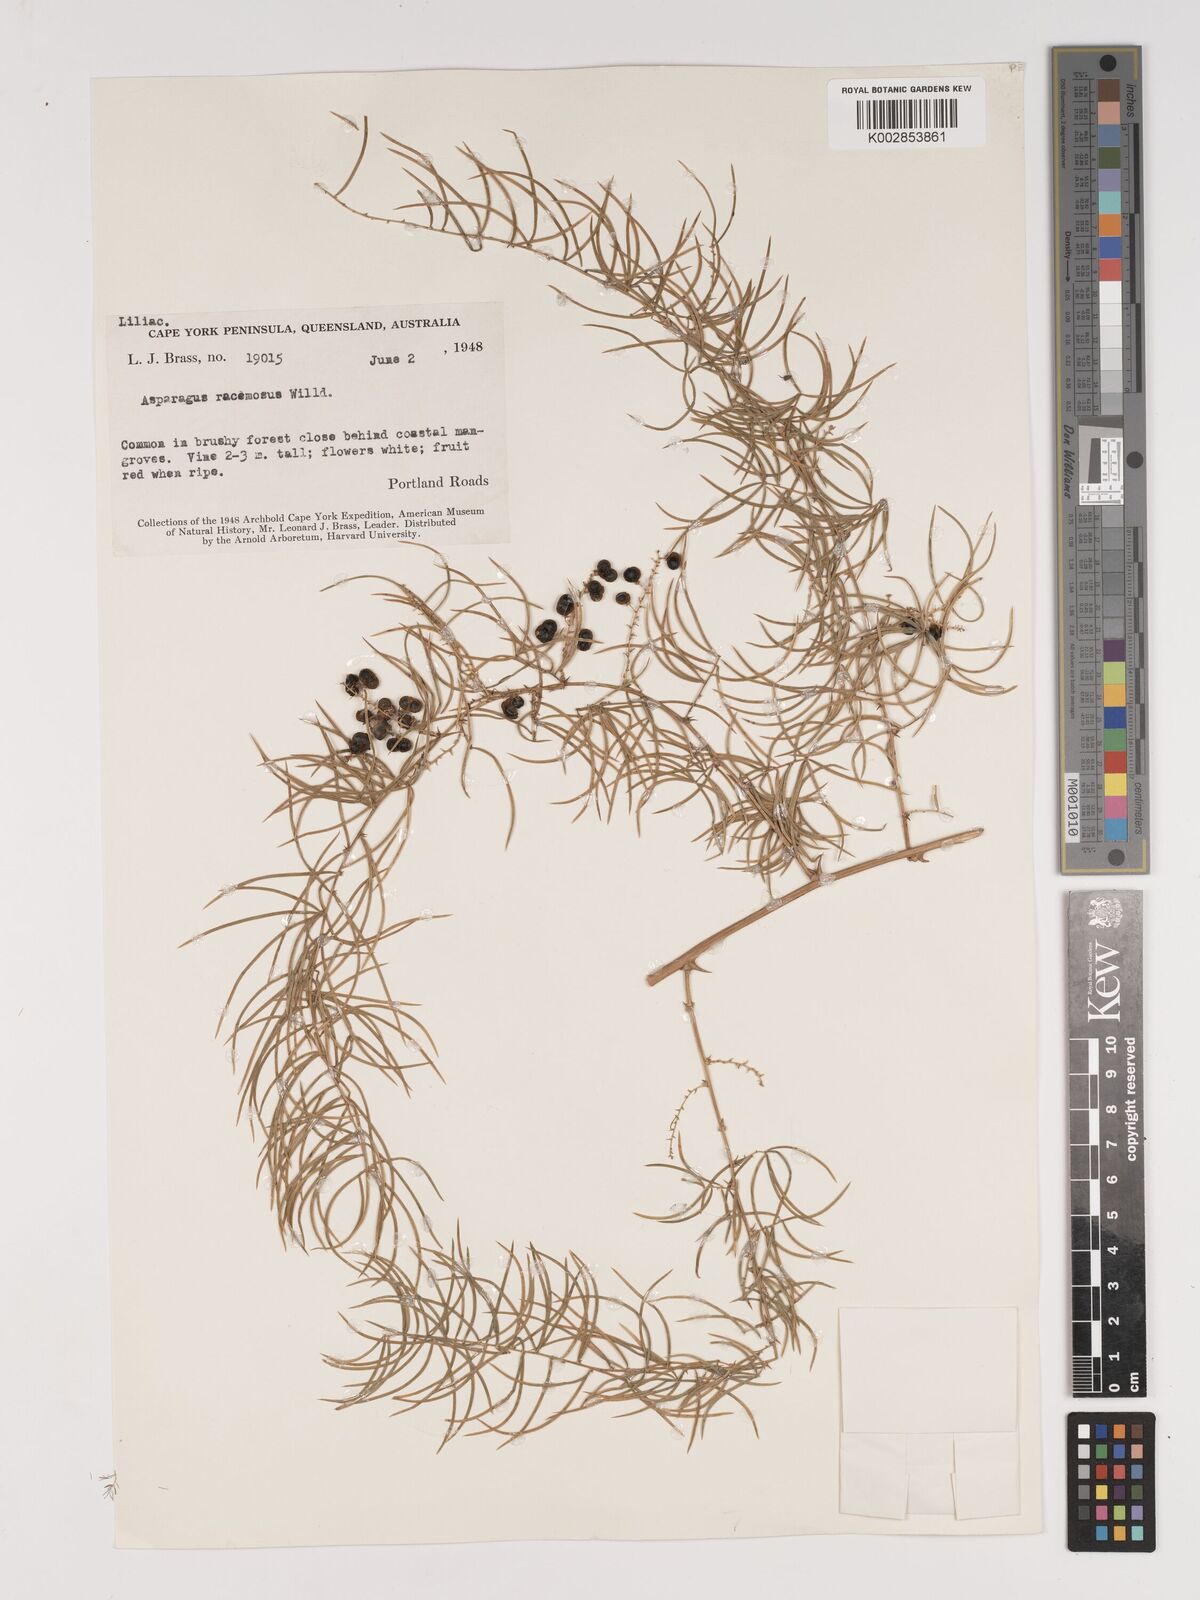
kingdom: Plantae
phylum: Tracheophyta
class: Liliopsida
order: Asparagales
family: Asparagaceae
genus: Asparagus
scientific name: Asparagus racemosus
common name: Asparagus-fern
